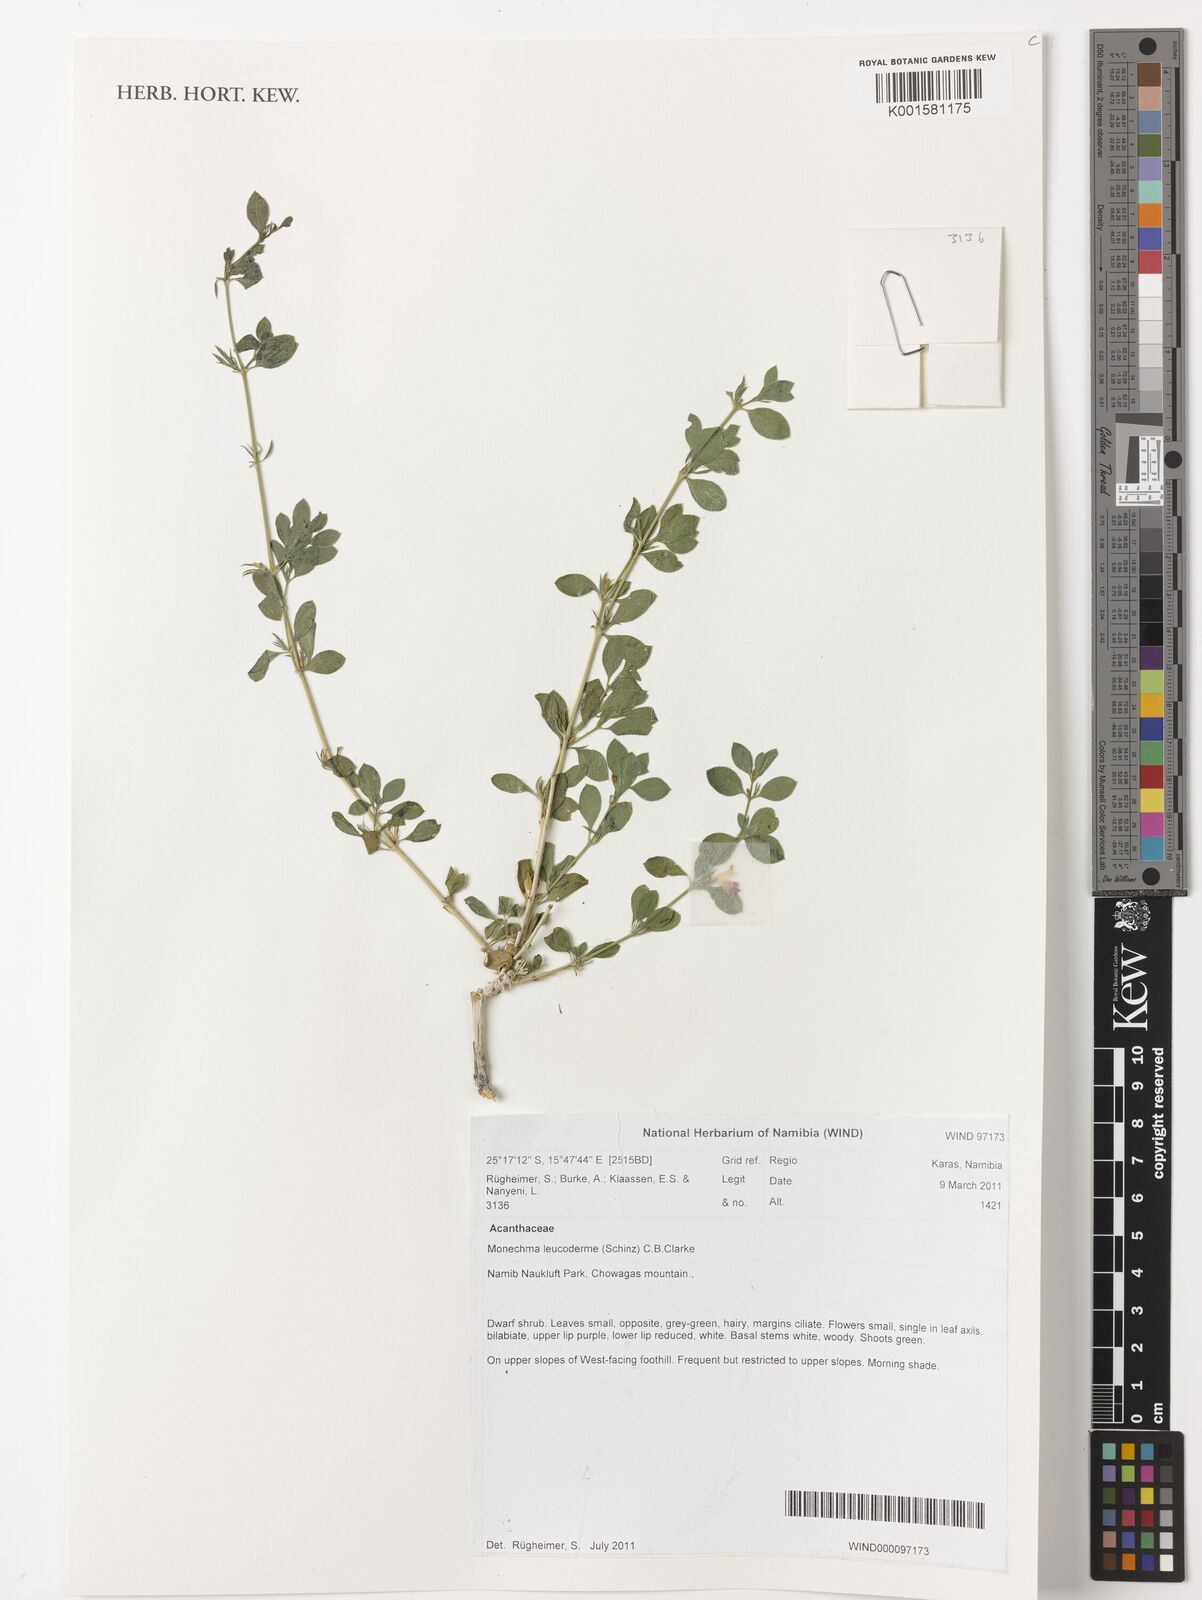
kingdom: Plantae
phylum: Tracheophyta
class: Magnoliopsida
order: Lamiales
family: Acanthaceae
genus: Monechma
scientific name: Monechma leucoderme
